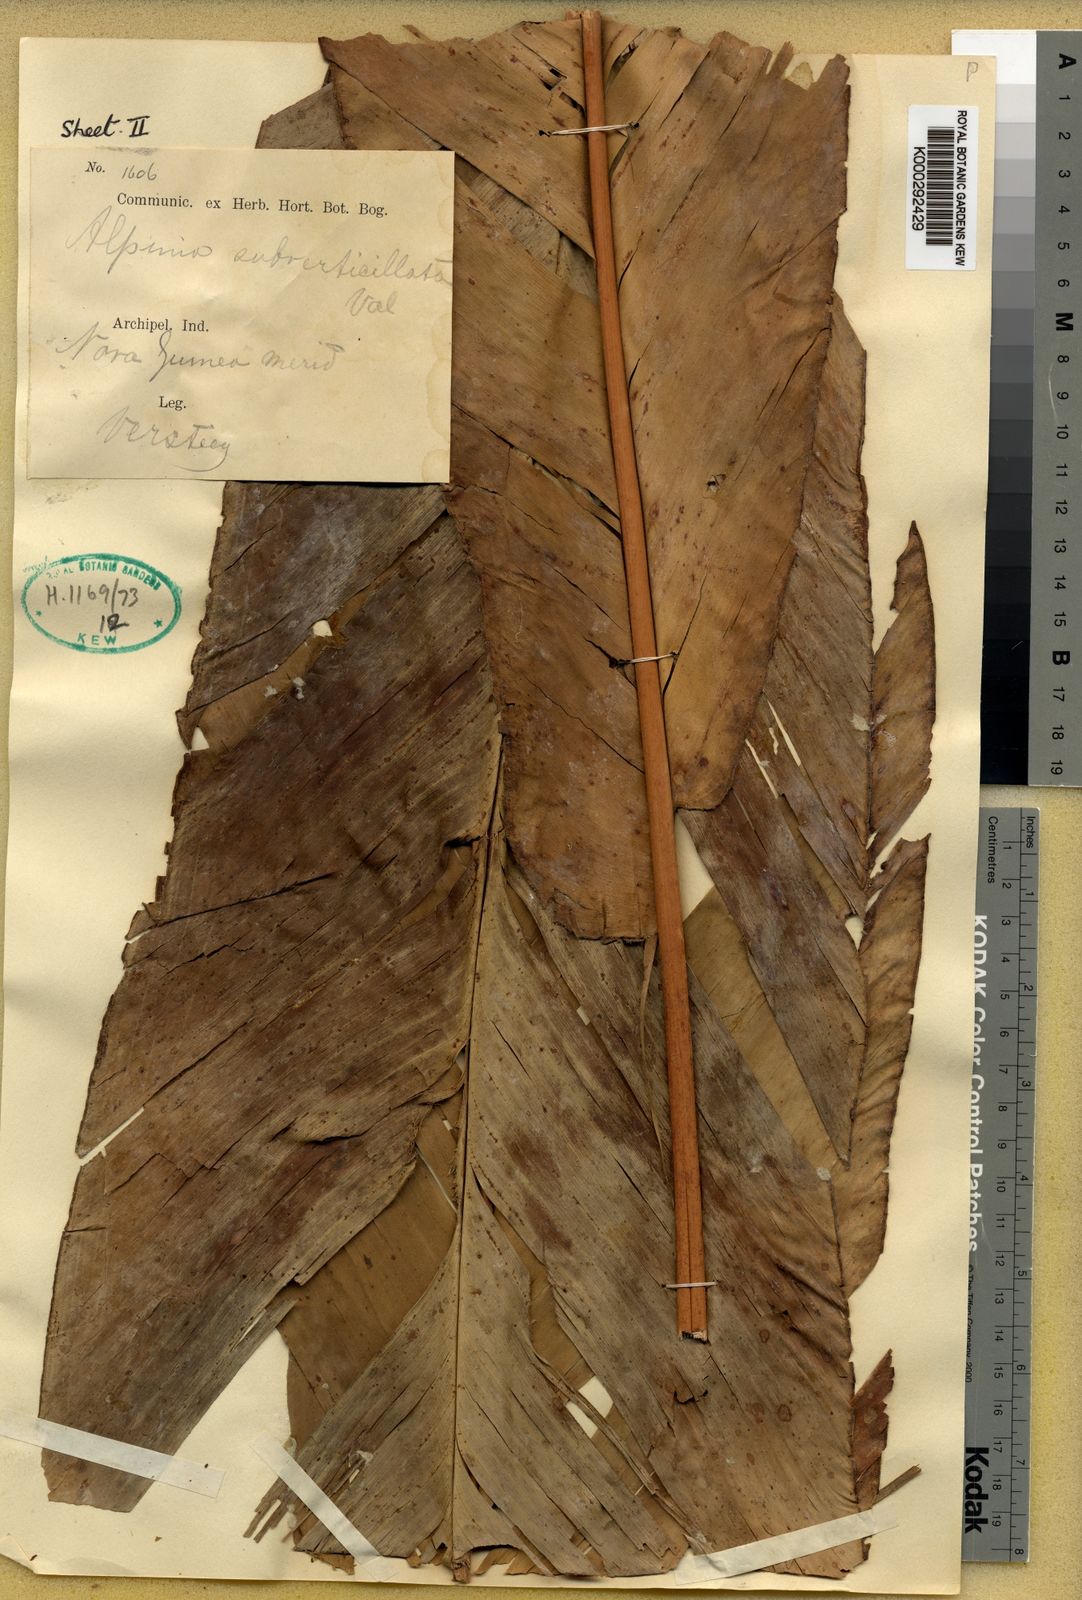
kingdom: Plantae
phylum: Tracheophyta
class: Liliopsida
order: Zingiberales
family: Zingiberaceae
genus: Alpinia
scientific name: Alpinia subverticillata
